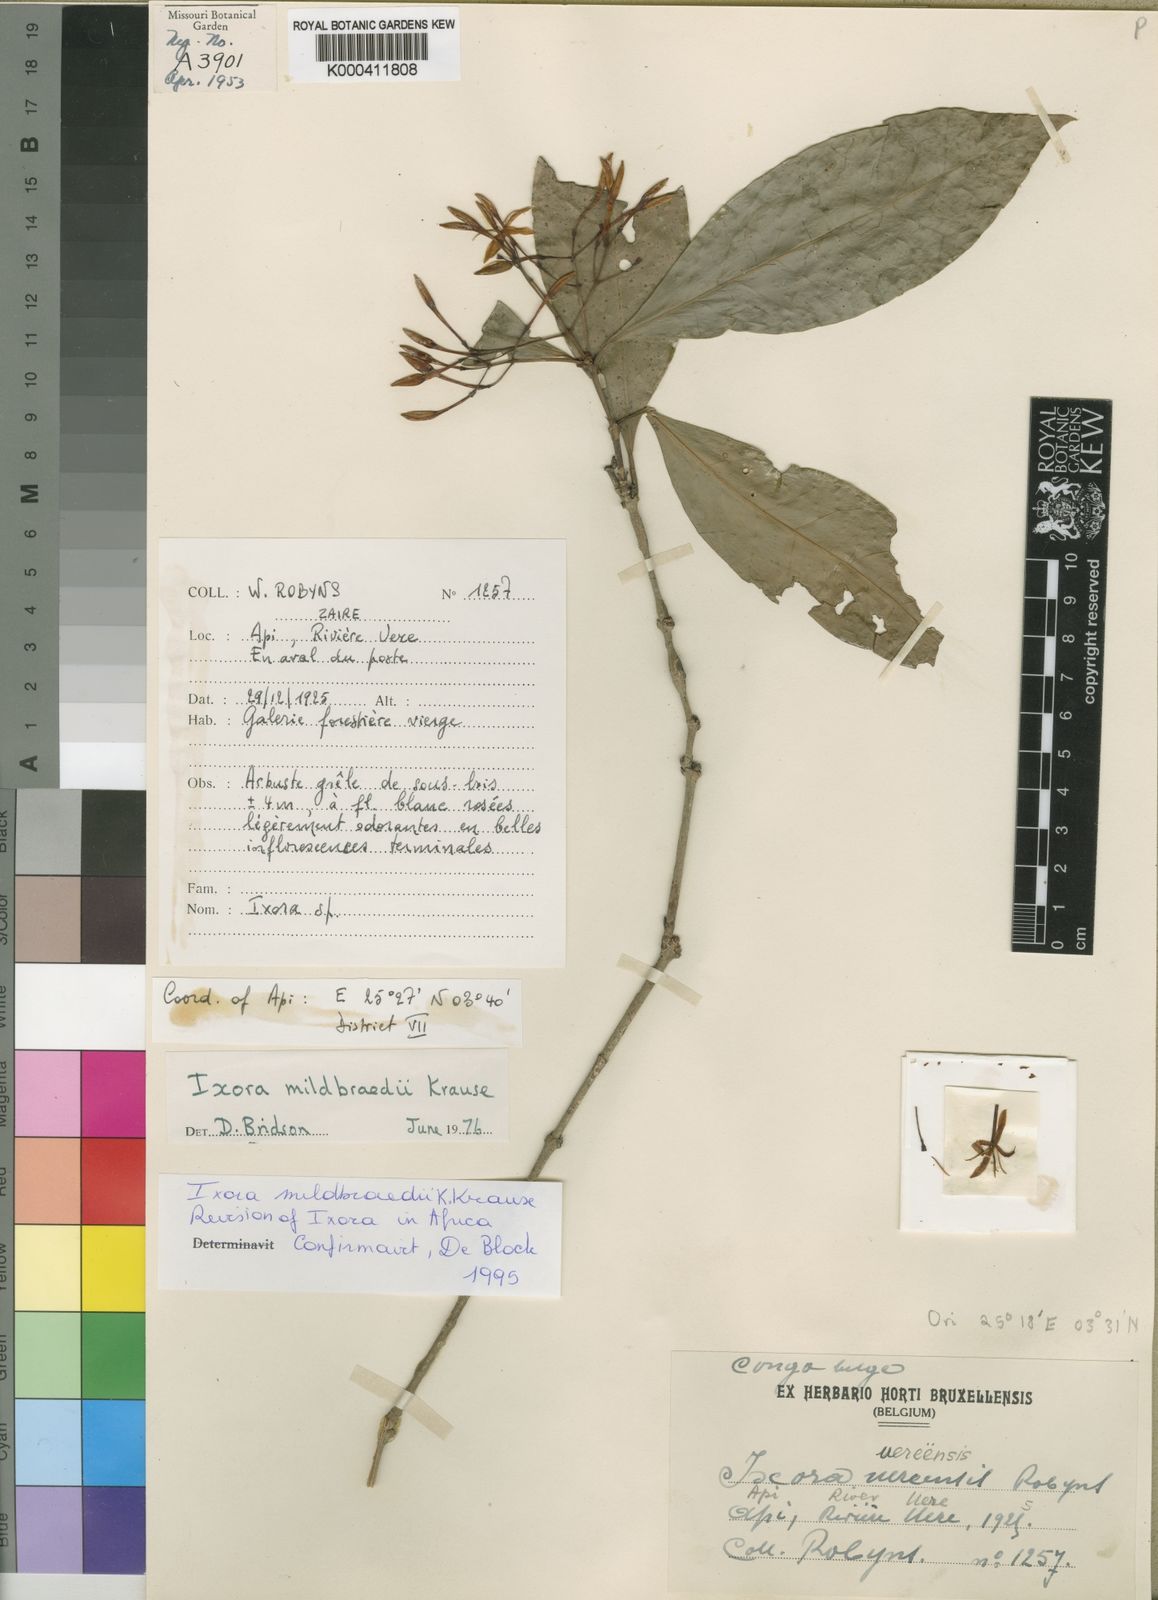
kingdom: Plantae
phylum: Tracheophyta
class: Magnoliopsida
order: Gentianales
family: Rubiaceae
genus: Ixora
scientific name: Ixora mildbraedii
